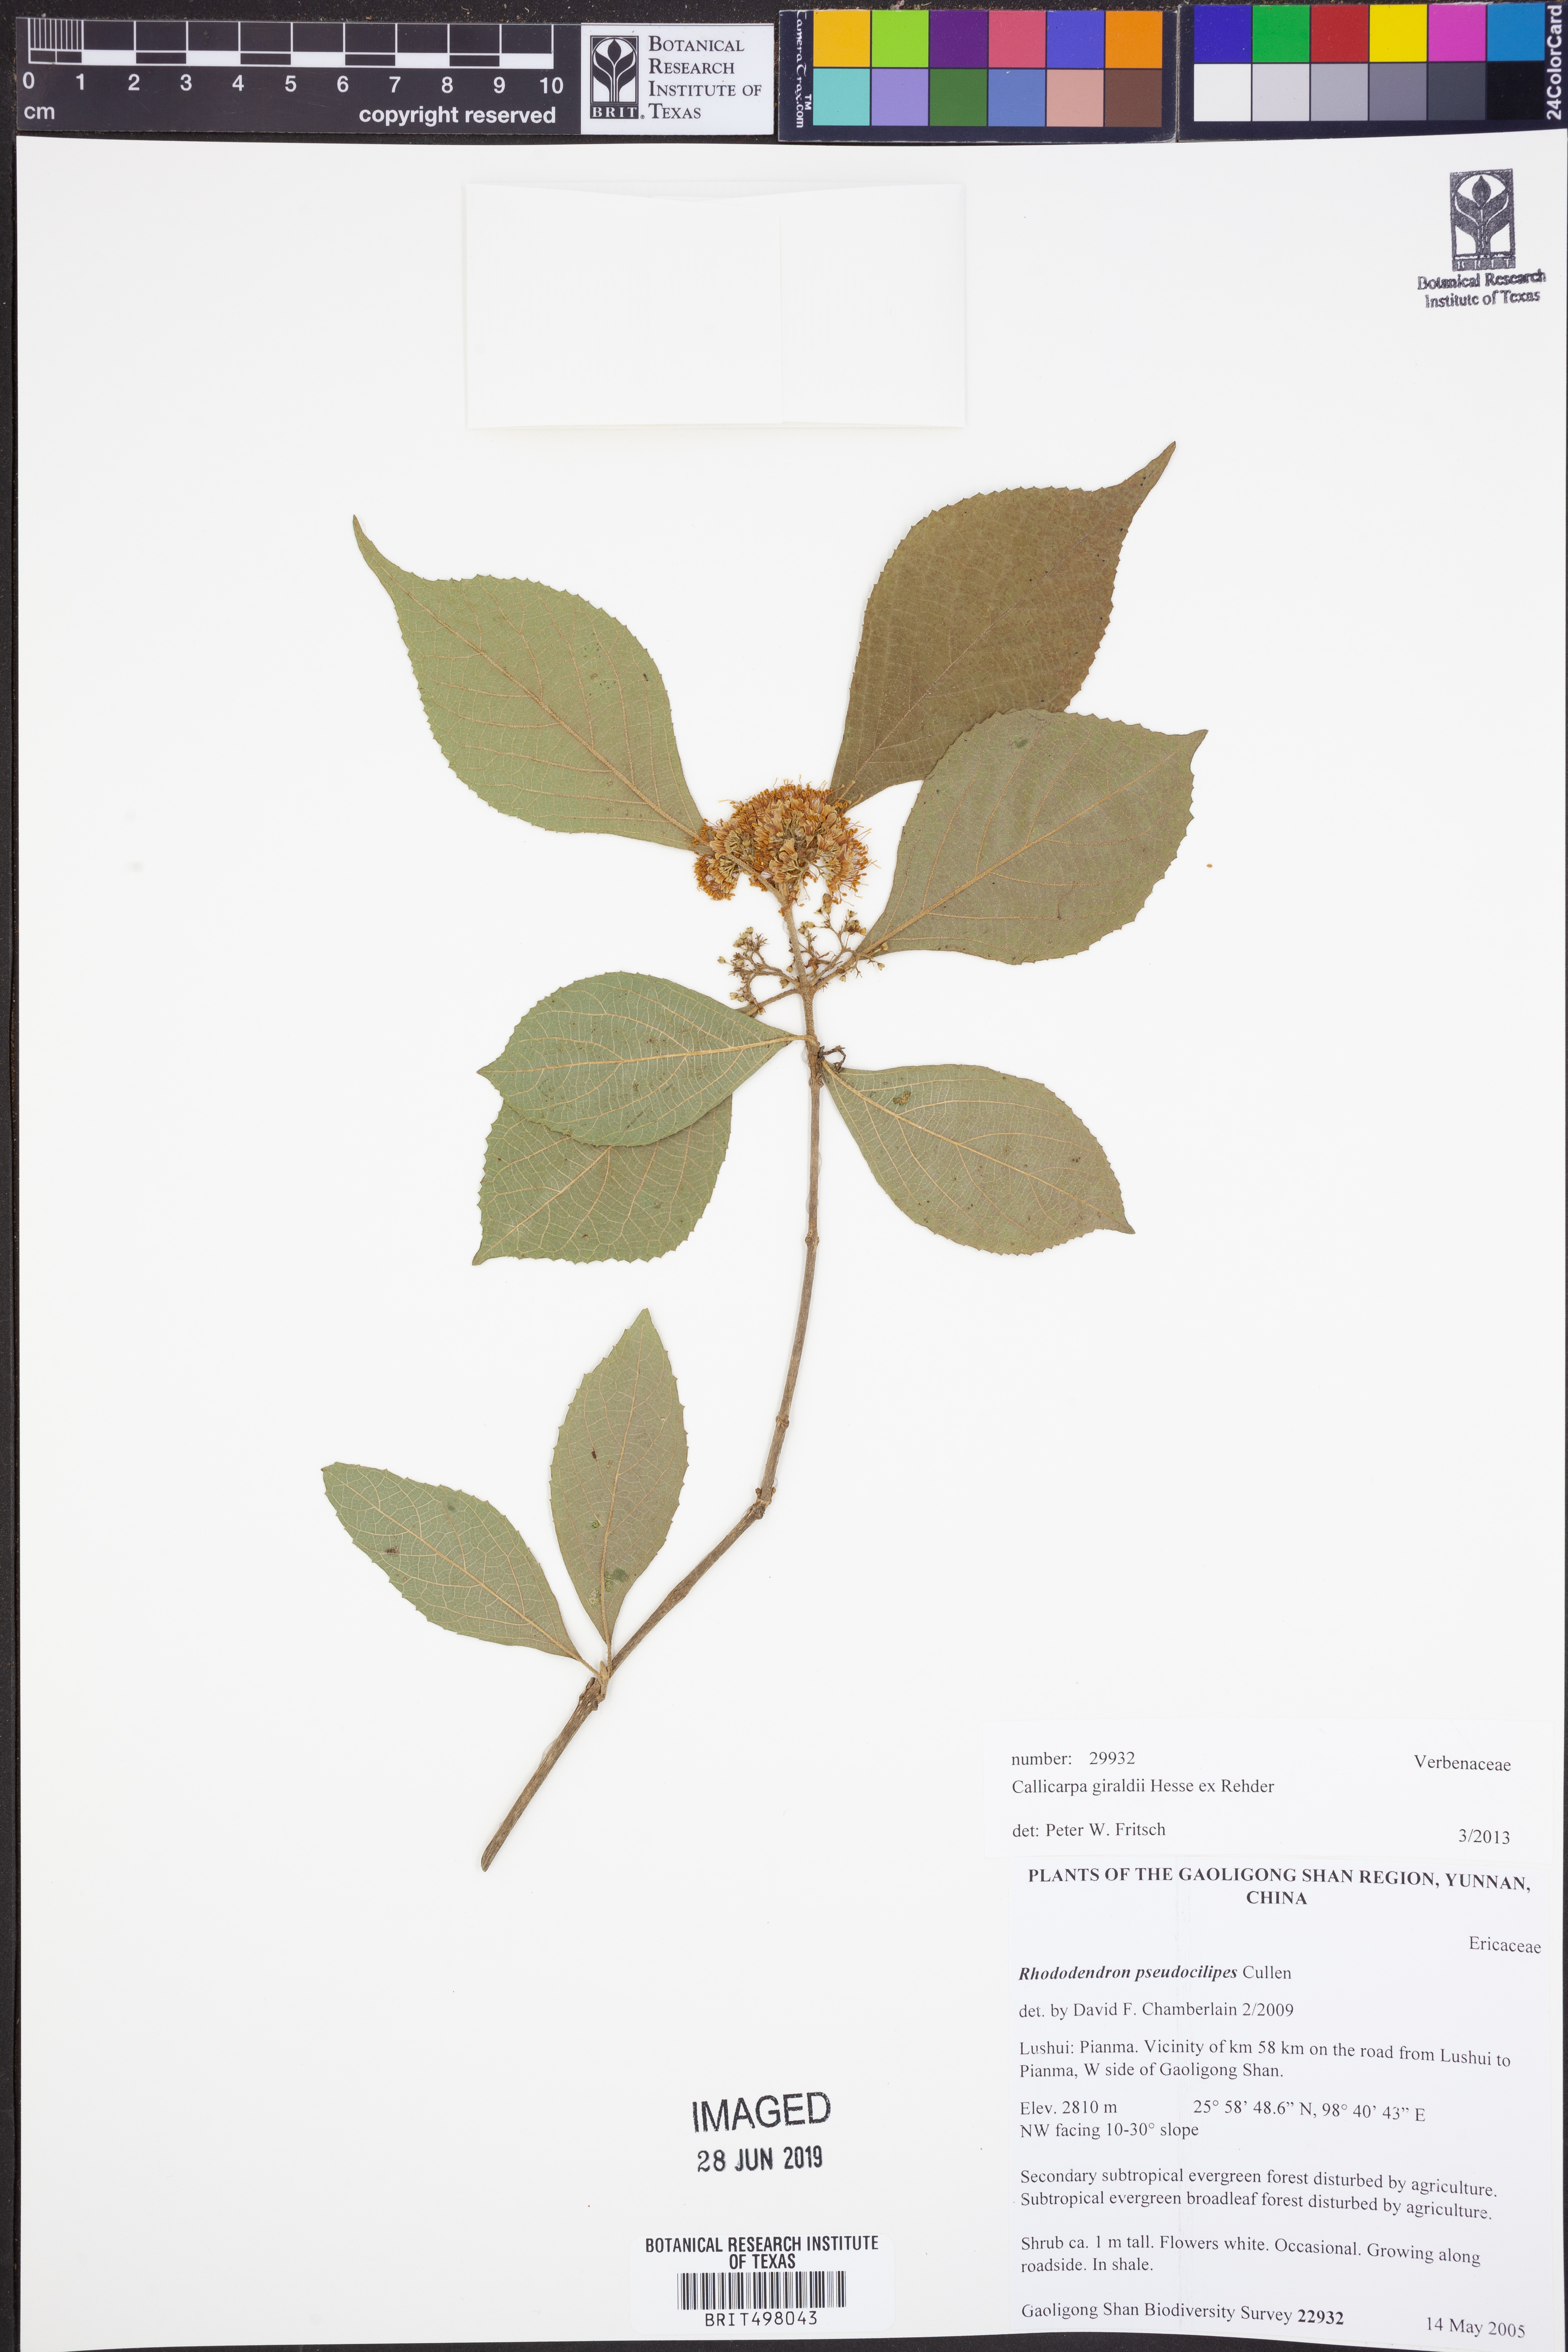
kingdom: Plantae
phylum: Tracheophyta
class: Magnoliopsida
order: Lamiales
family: Lamiaceae
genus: Callicarpa
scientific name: Callicarpa giraldii
